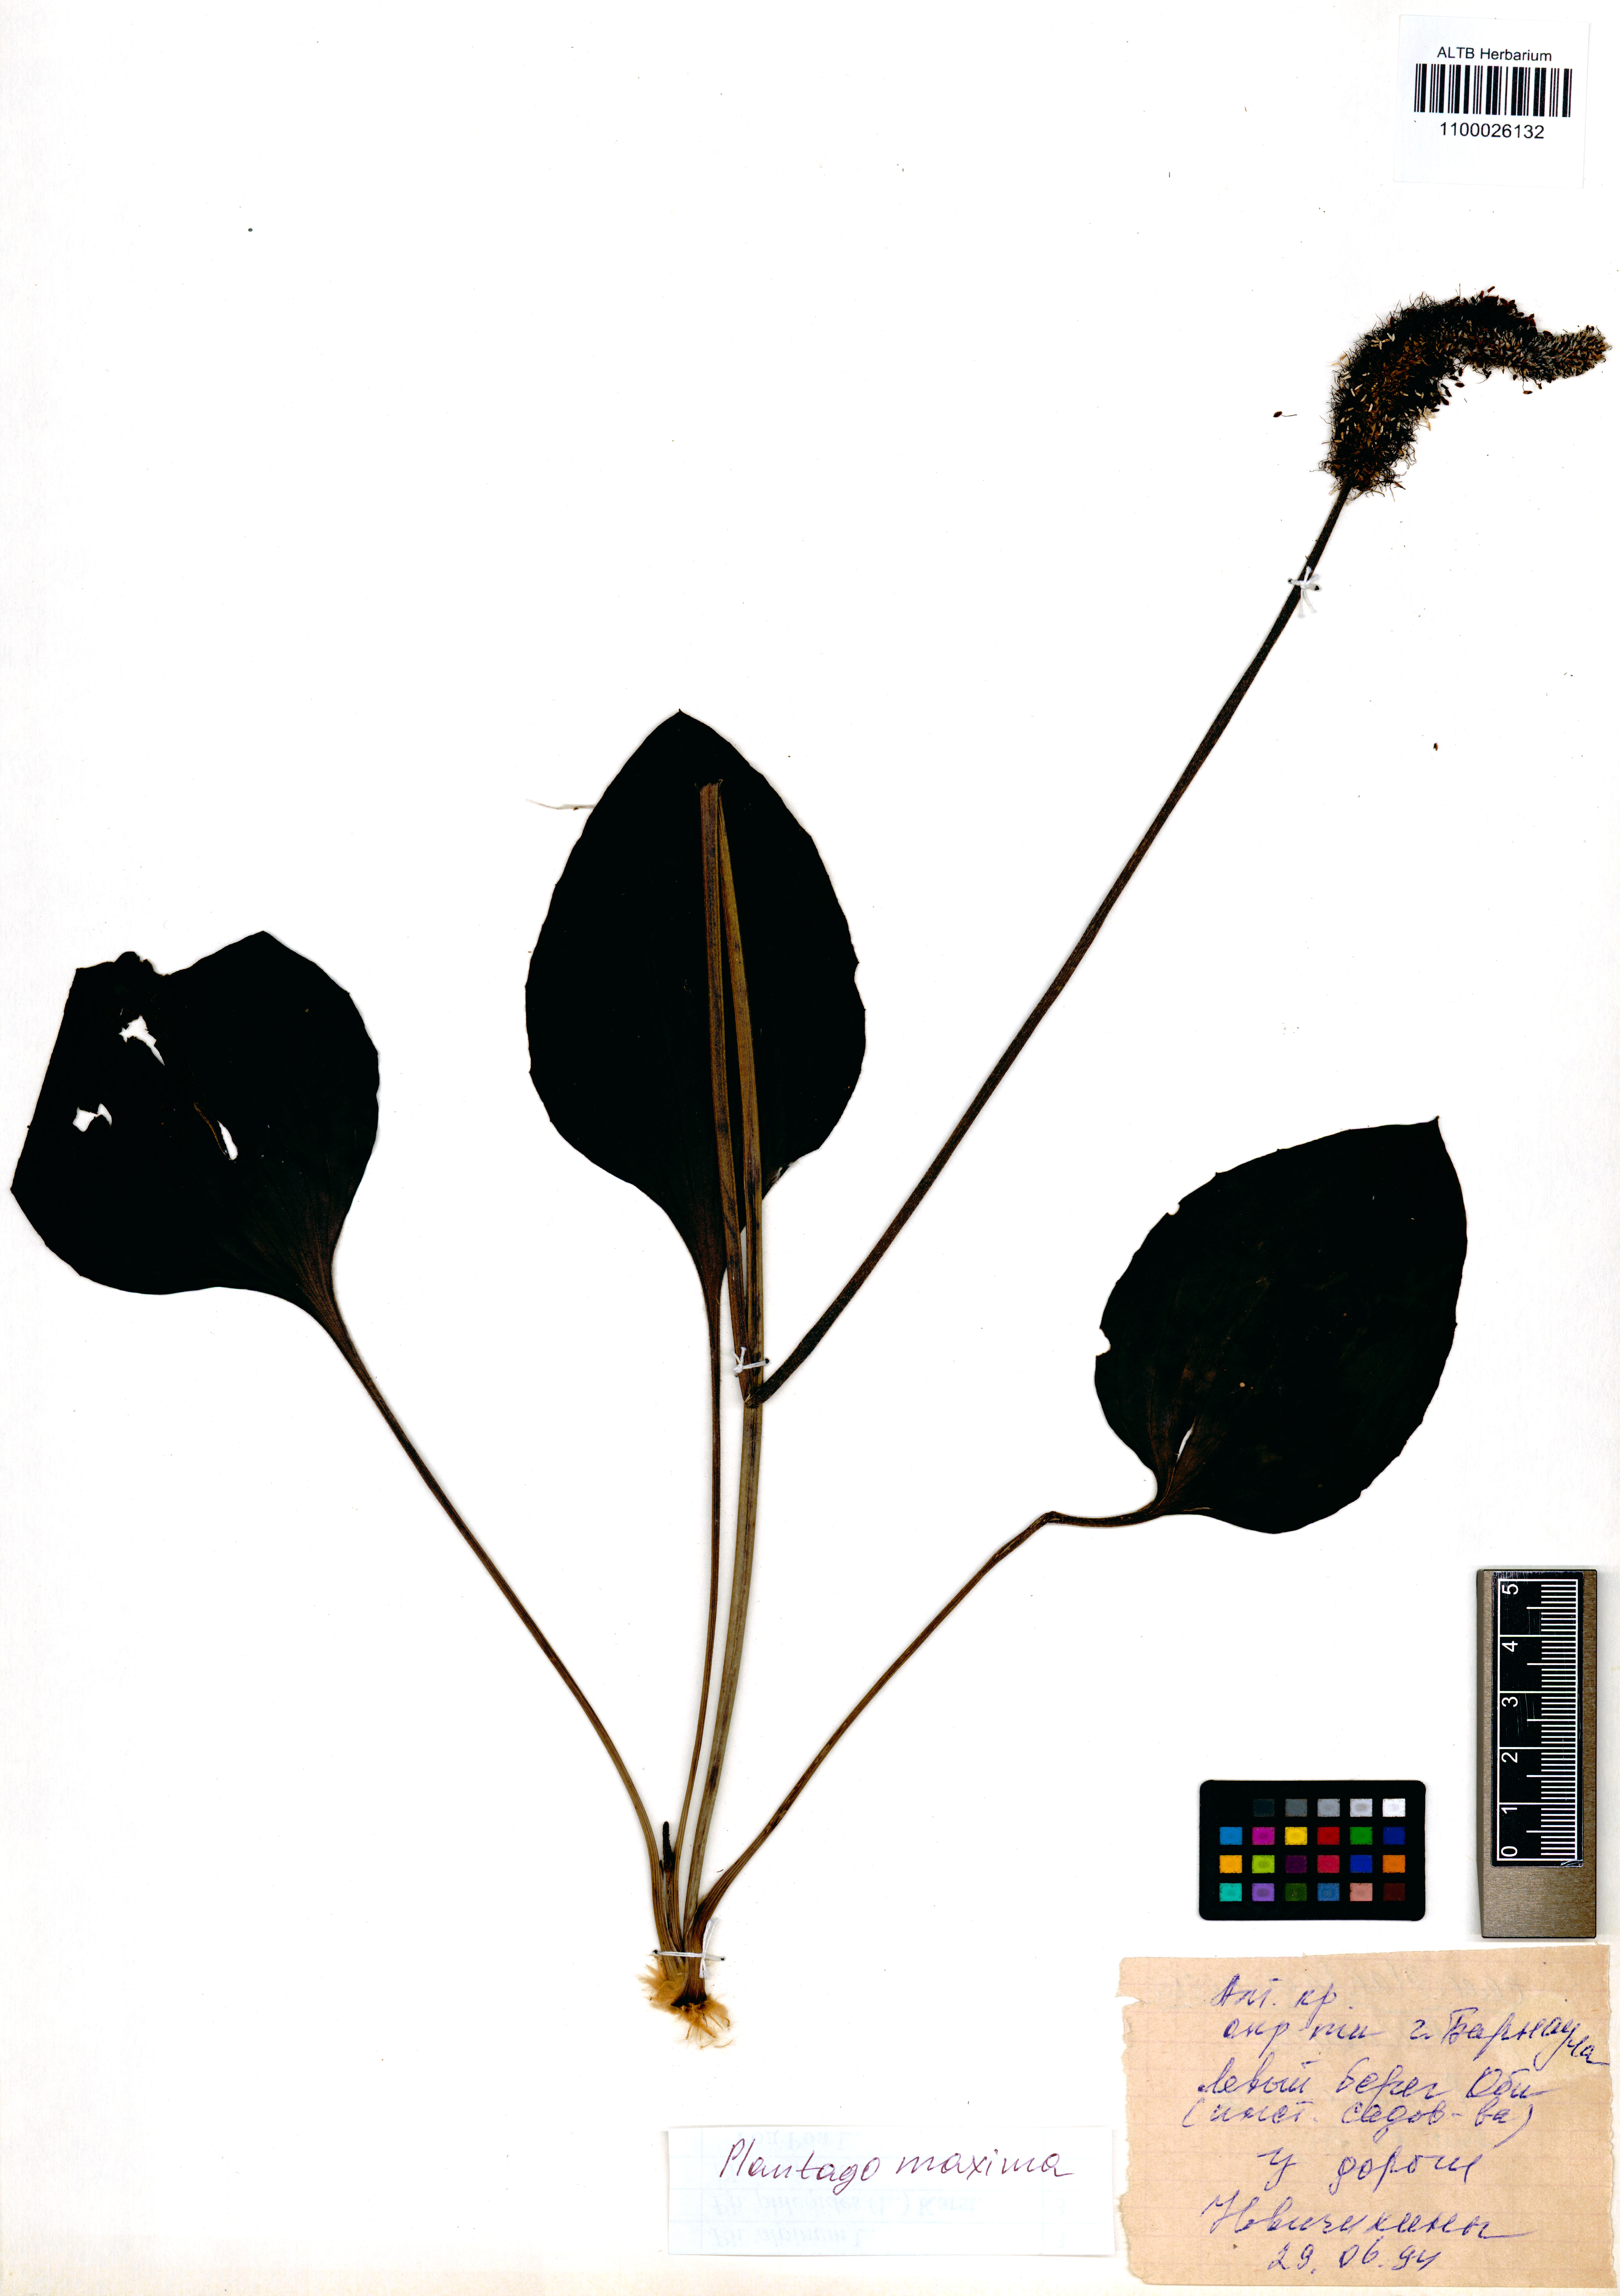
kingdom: Plantae
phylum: Tracheophyta
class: Magnoliopsida
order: Lamiales
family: Plantaginaceae
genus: Plantago
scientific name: Plantago maxima
